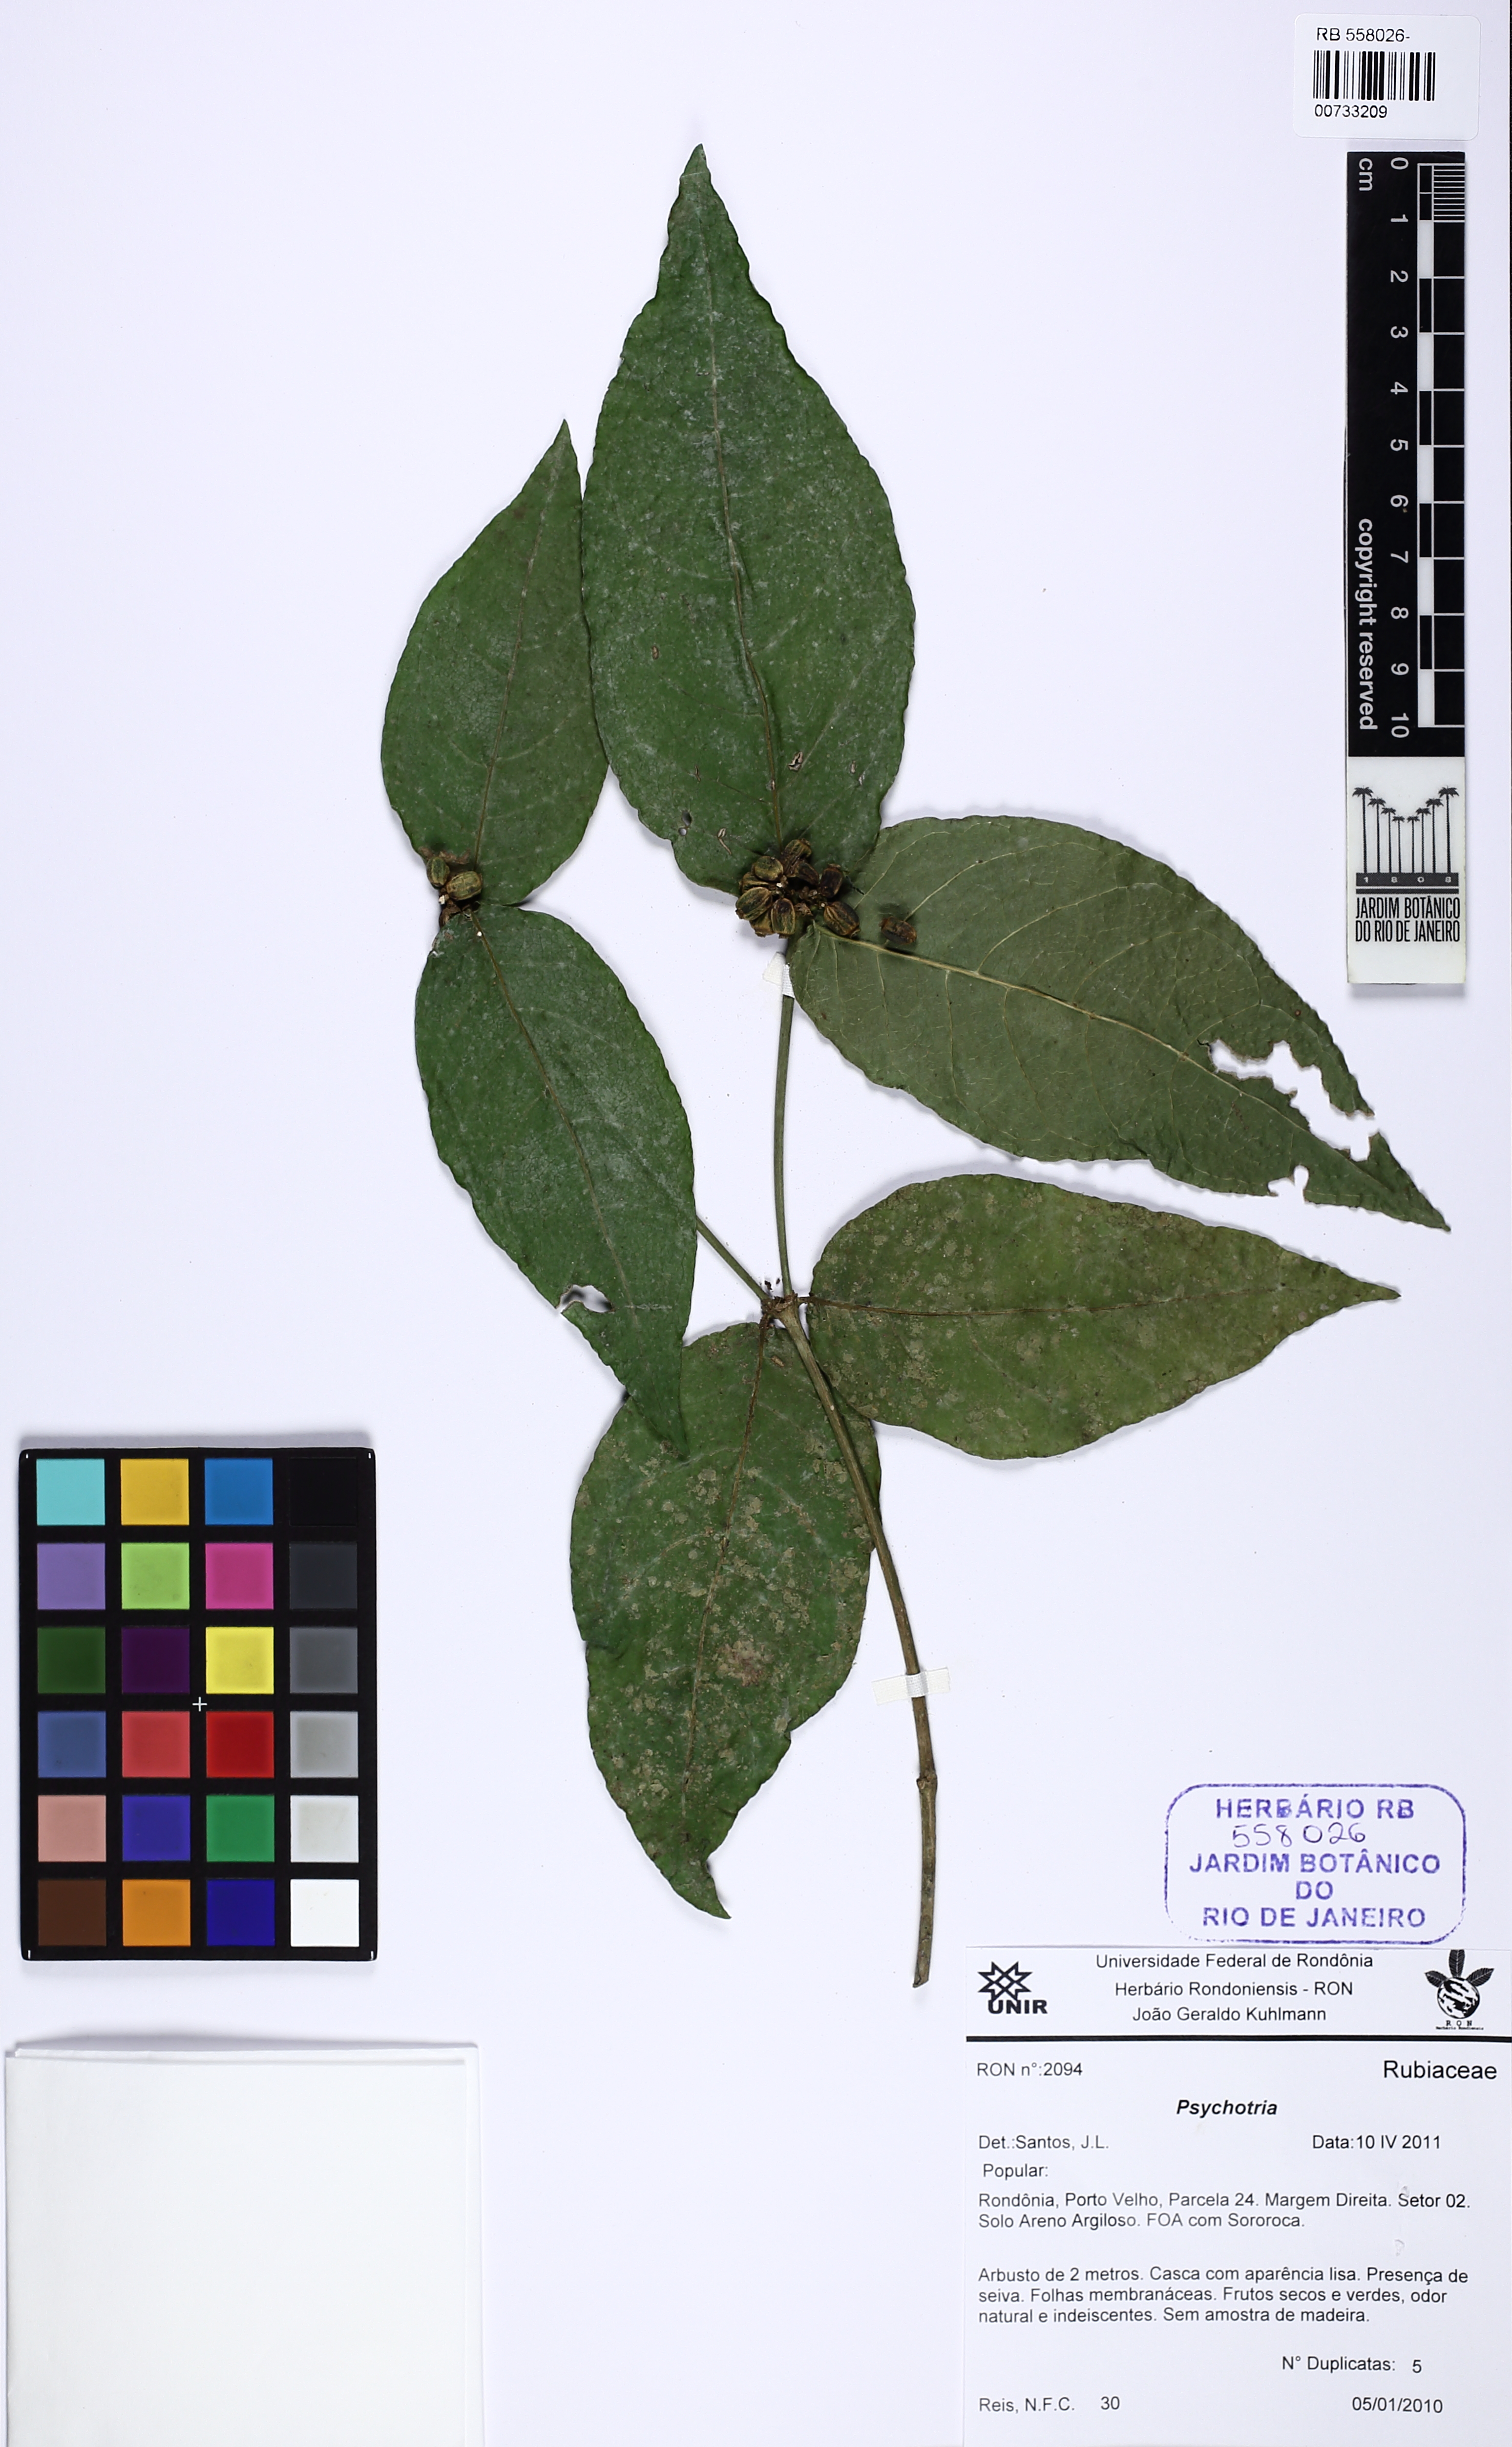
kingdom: Plantae
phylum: Tracheophyta
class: Magnoliopsida
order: Gentianales
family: Rubiaceae
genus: Rudgea
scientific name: Rudgea
